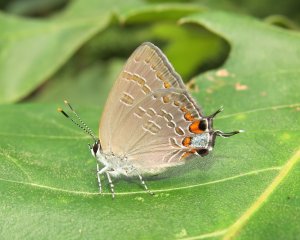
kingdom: Animalia
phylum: Arthropoda
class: Insecta
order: Lepidoptera
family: Lycaenidae
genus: Strymon
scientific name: Strymon kingi
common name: King's Hairstreak
